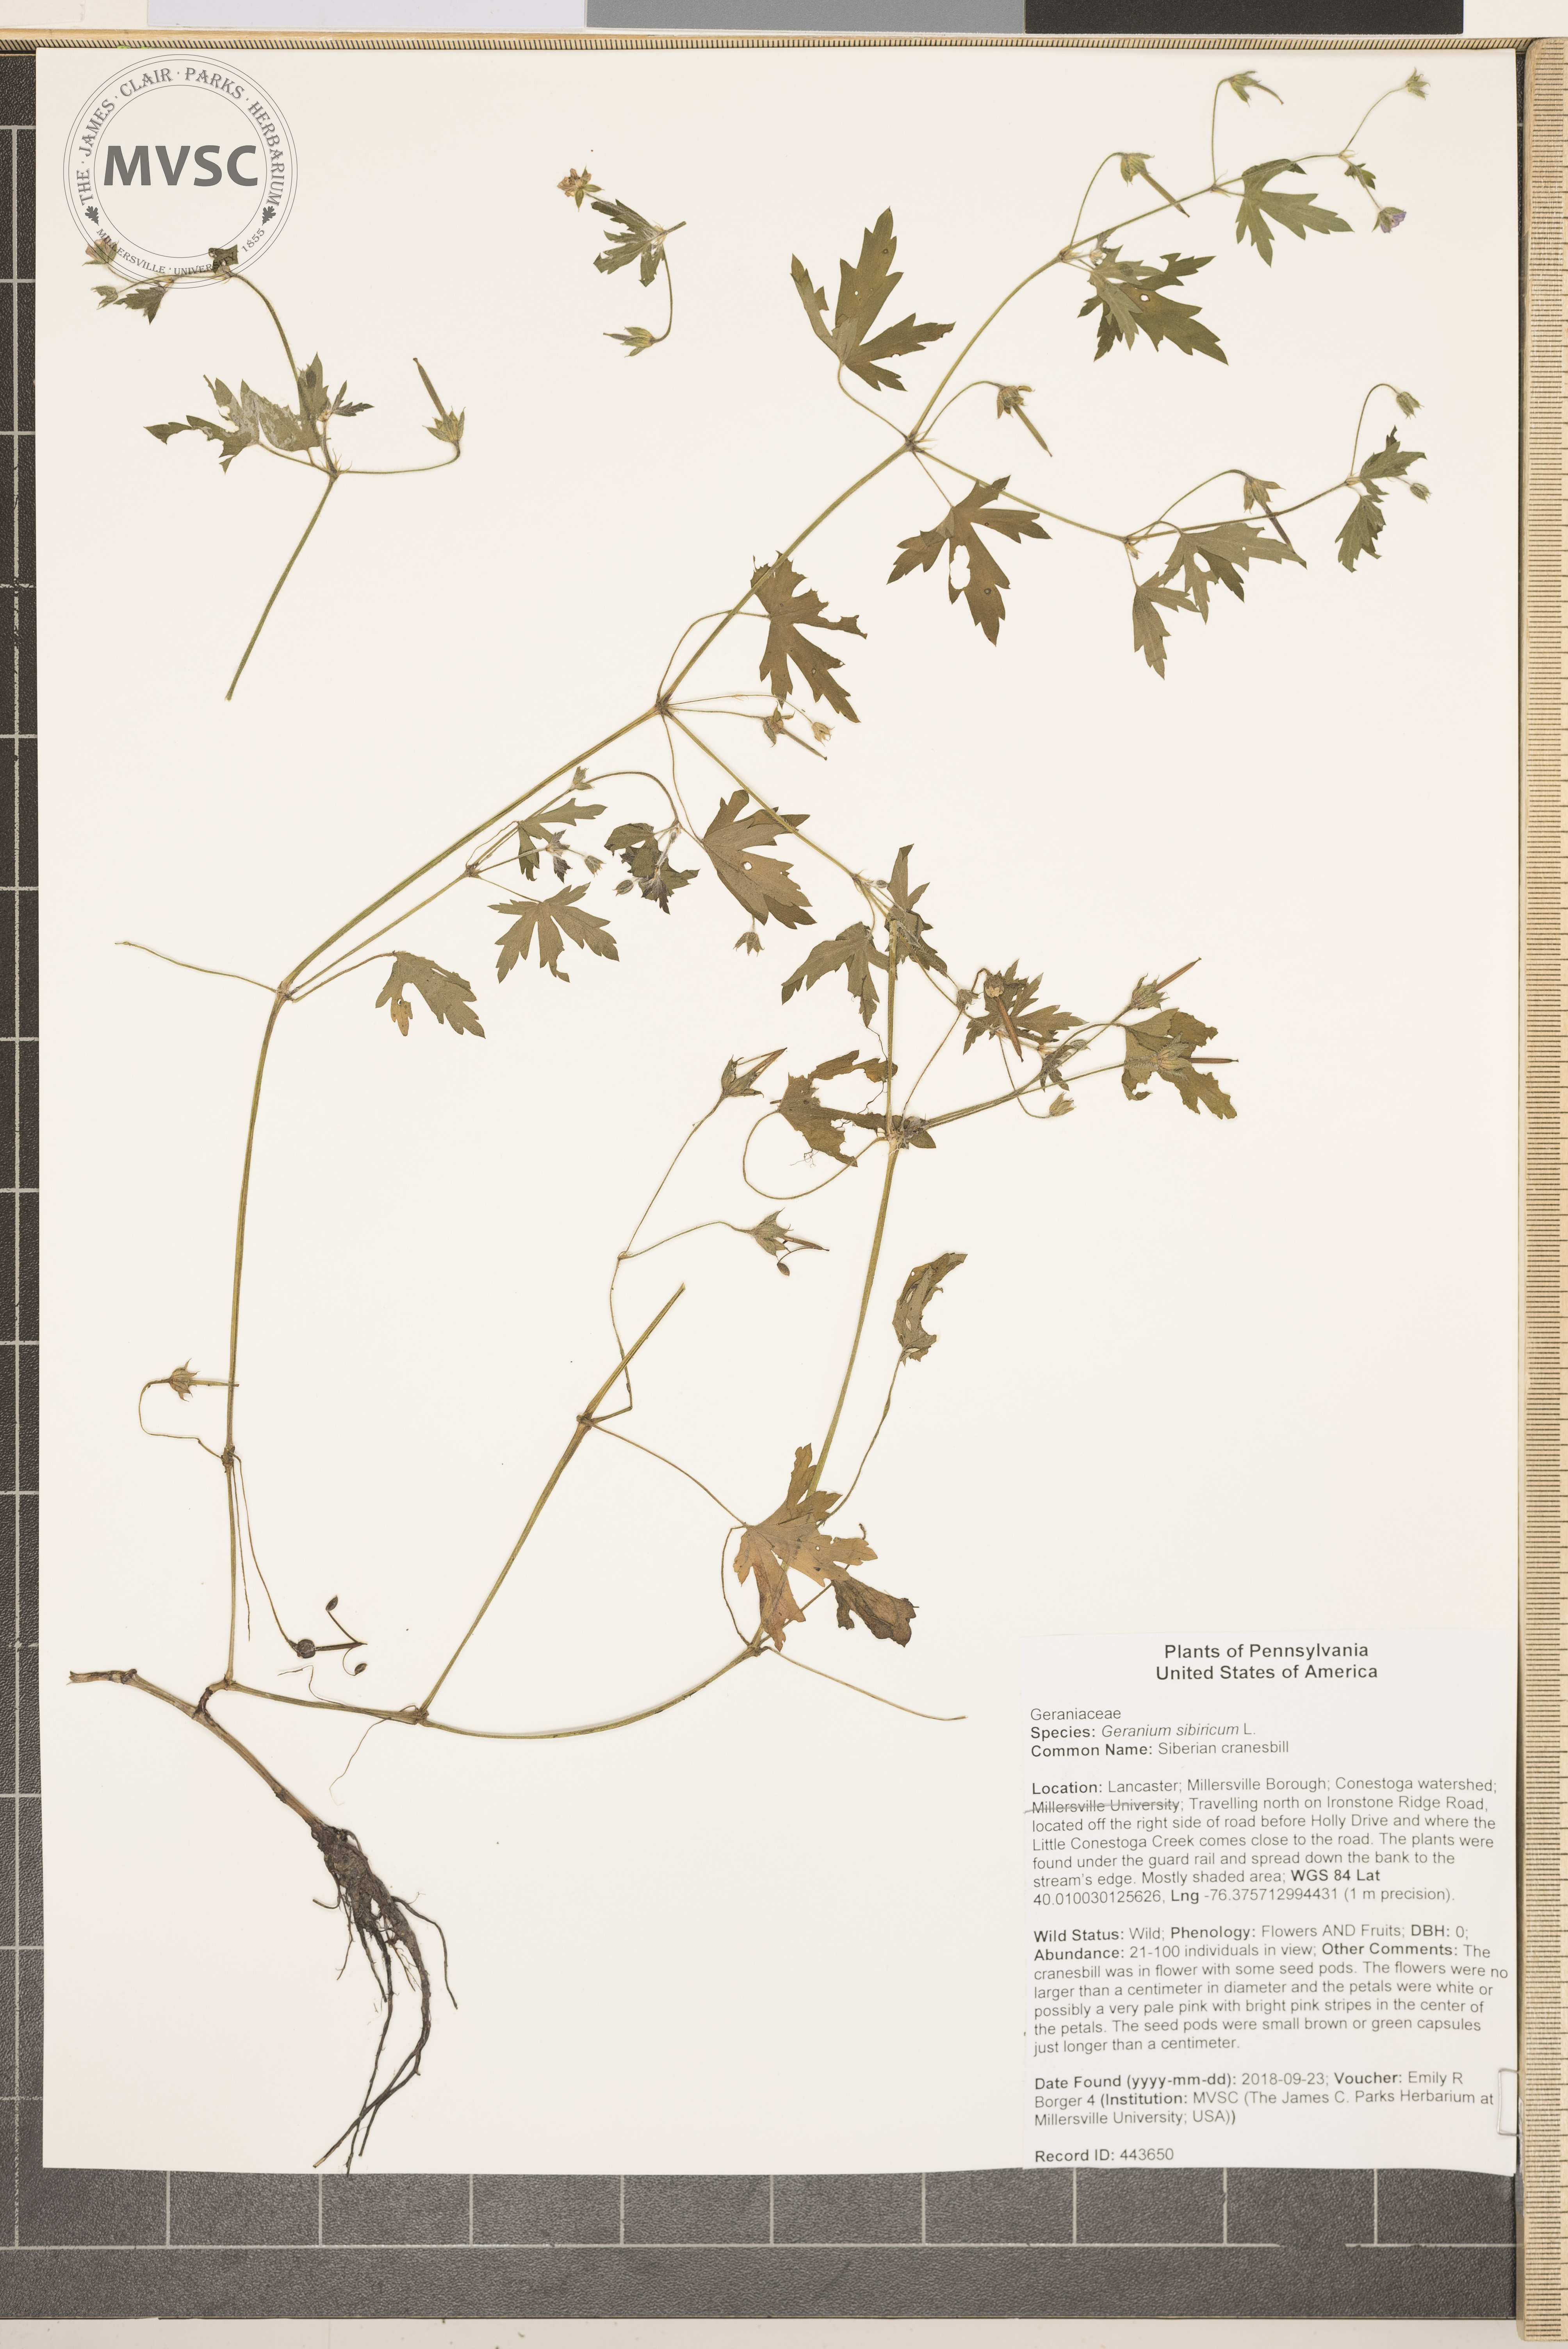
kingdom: Plantae
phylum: Tracheophyta
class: Magnoliopsida
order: Geraniales
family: Geraniaceae
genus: Geranium
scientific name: Geranium sibiricum
